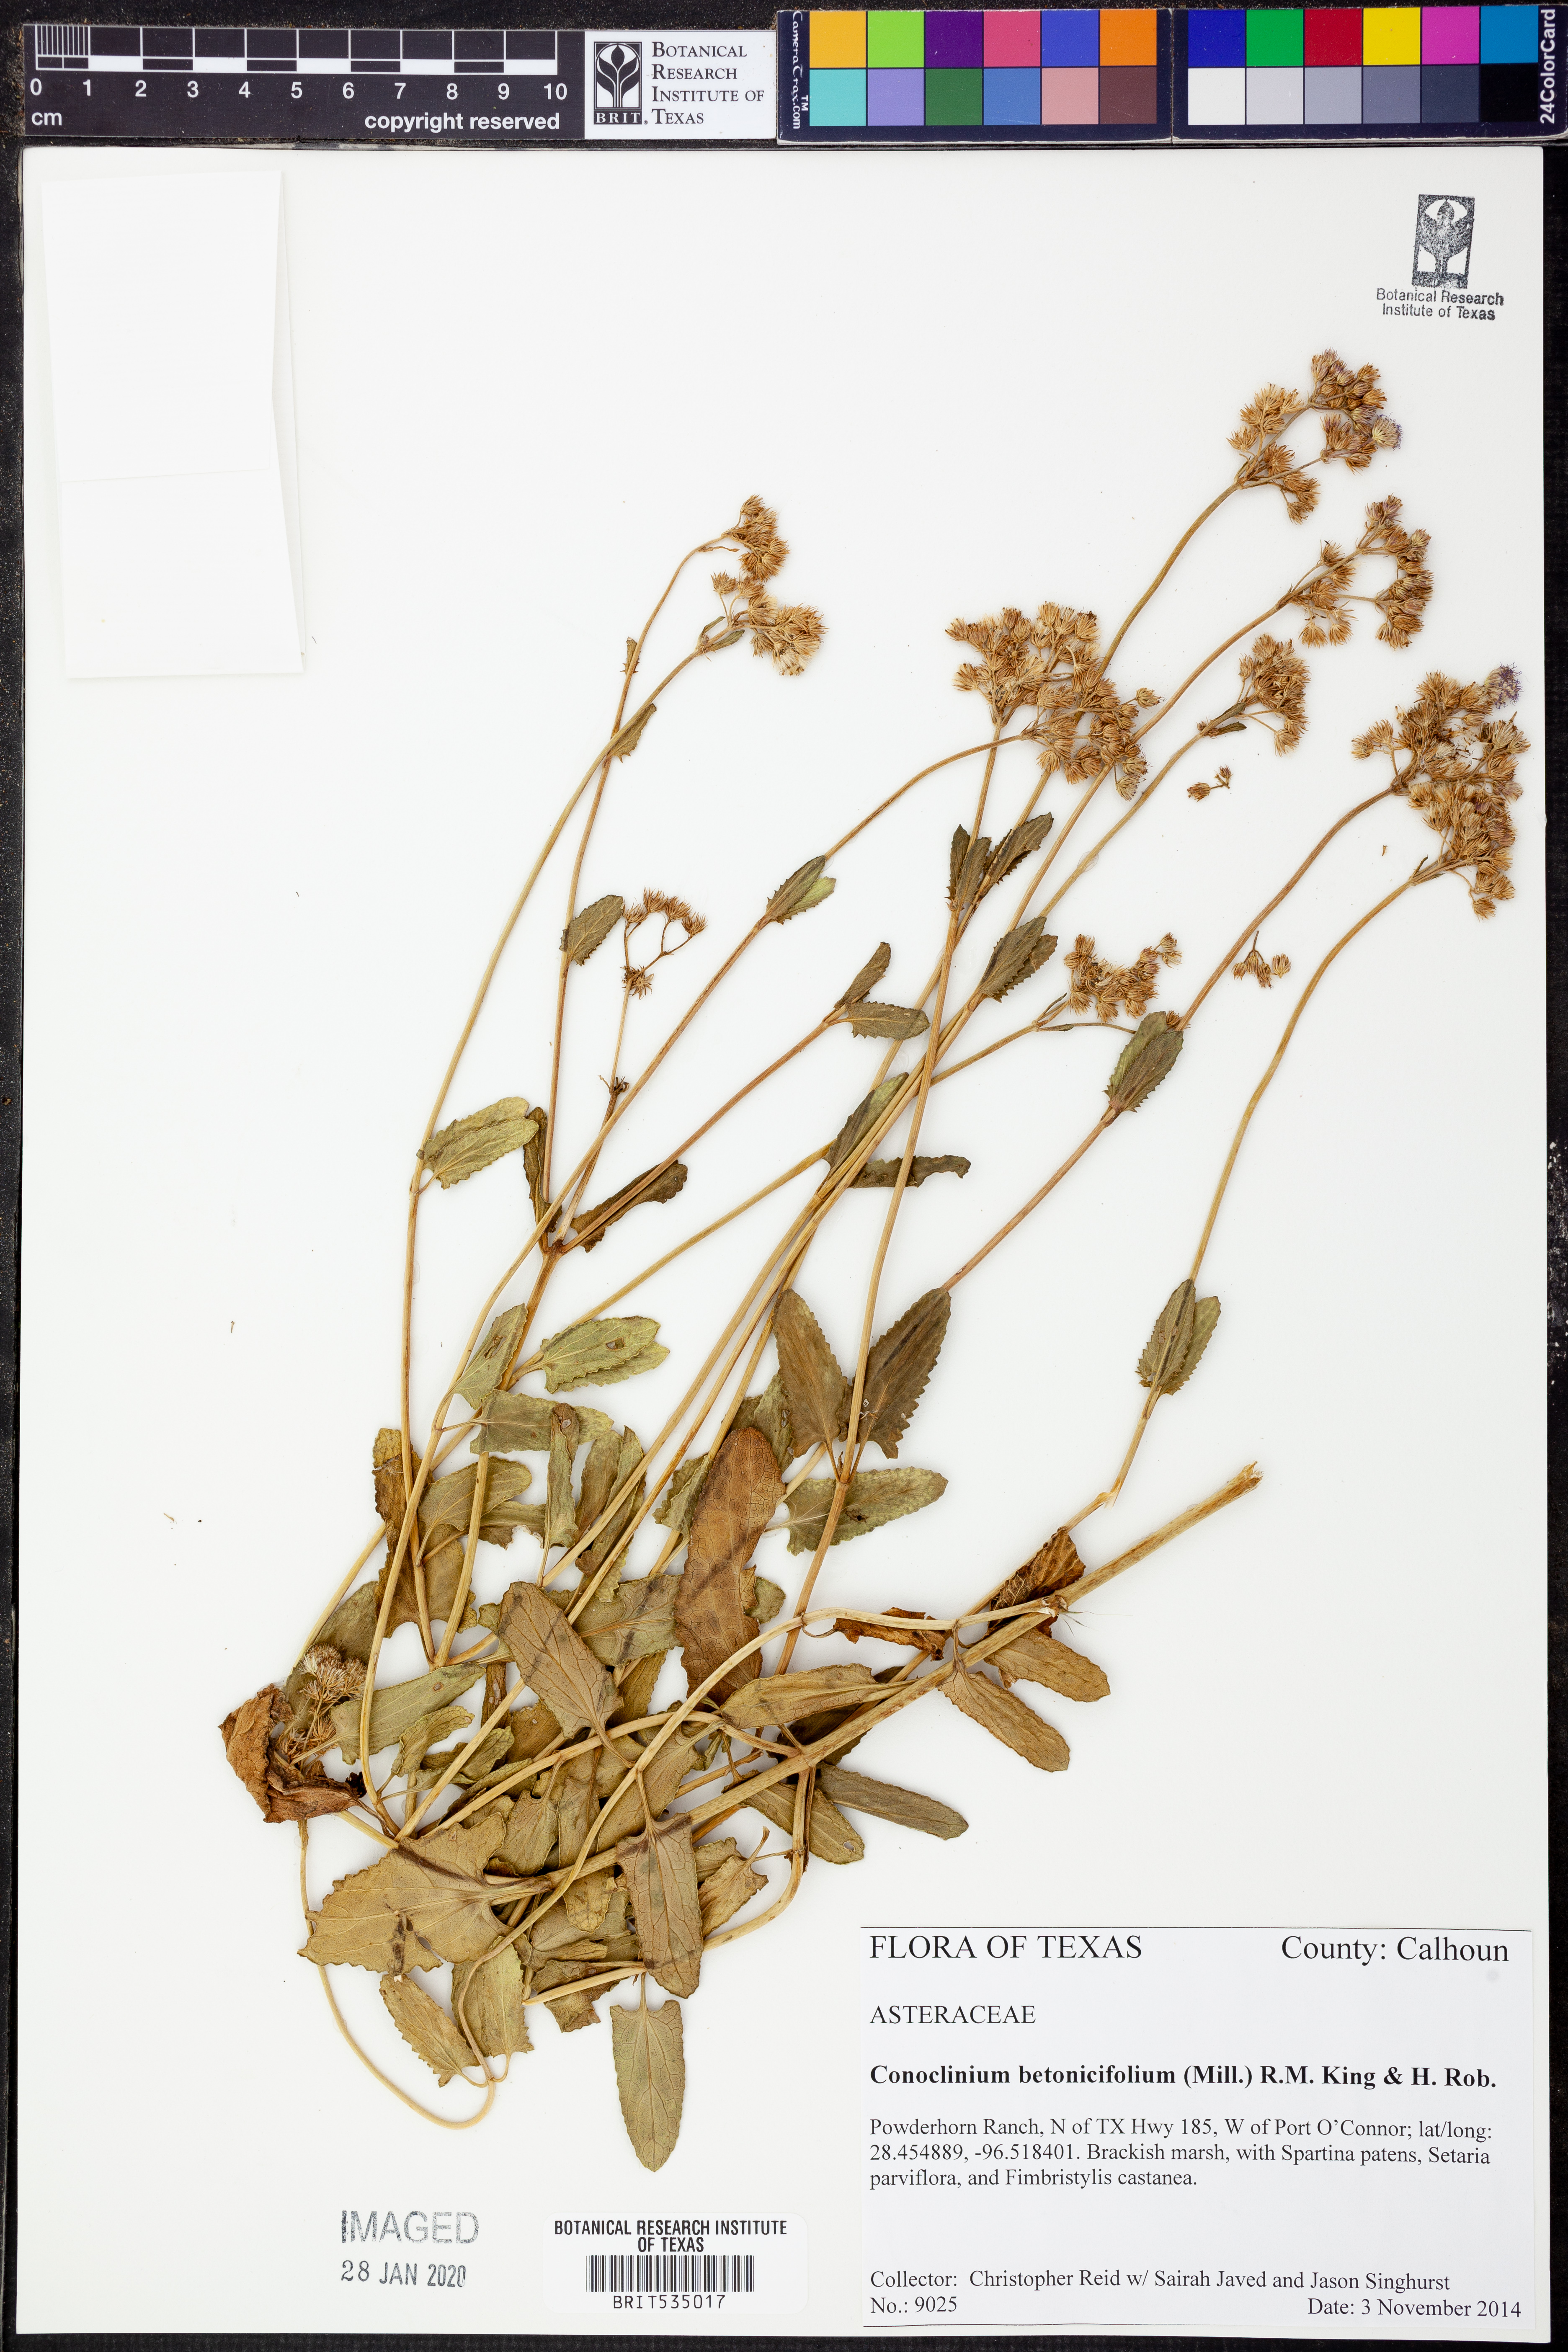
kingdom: Plantae
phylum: Tracheophyta
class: Magnoliopsida
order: Asterales
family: Asteraceae
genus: Conoclinium
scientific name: Conoclinium betonicifolium
